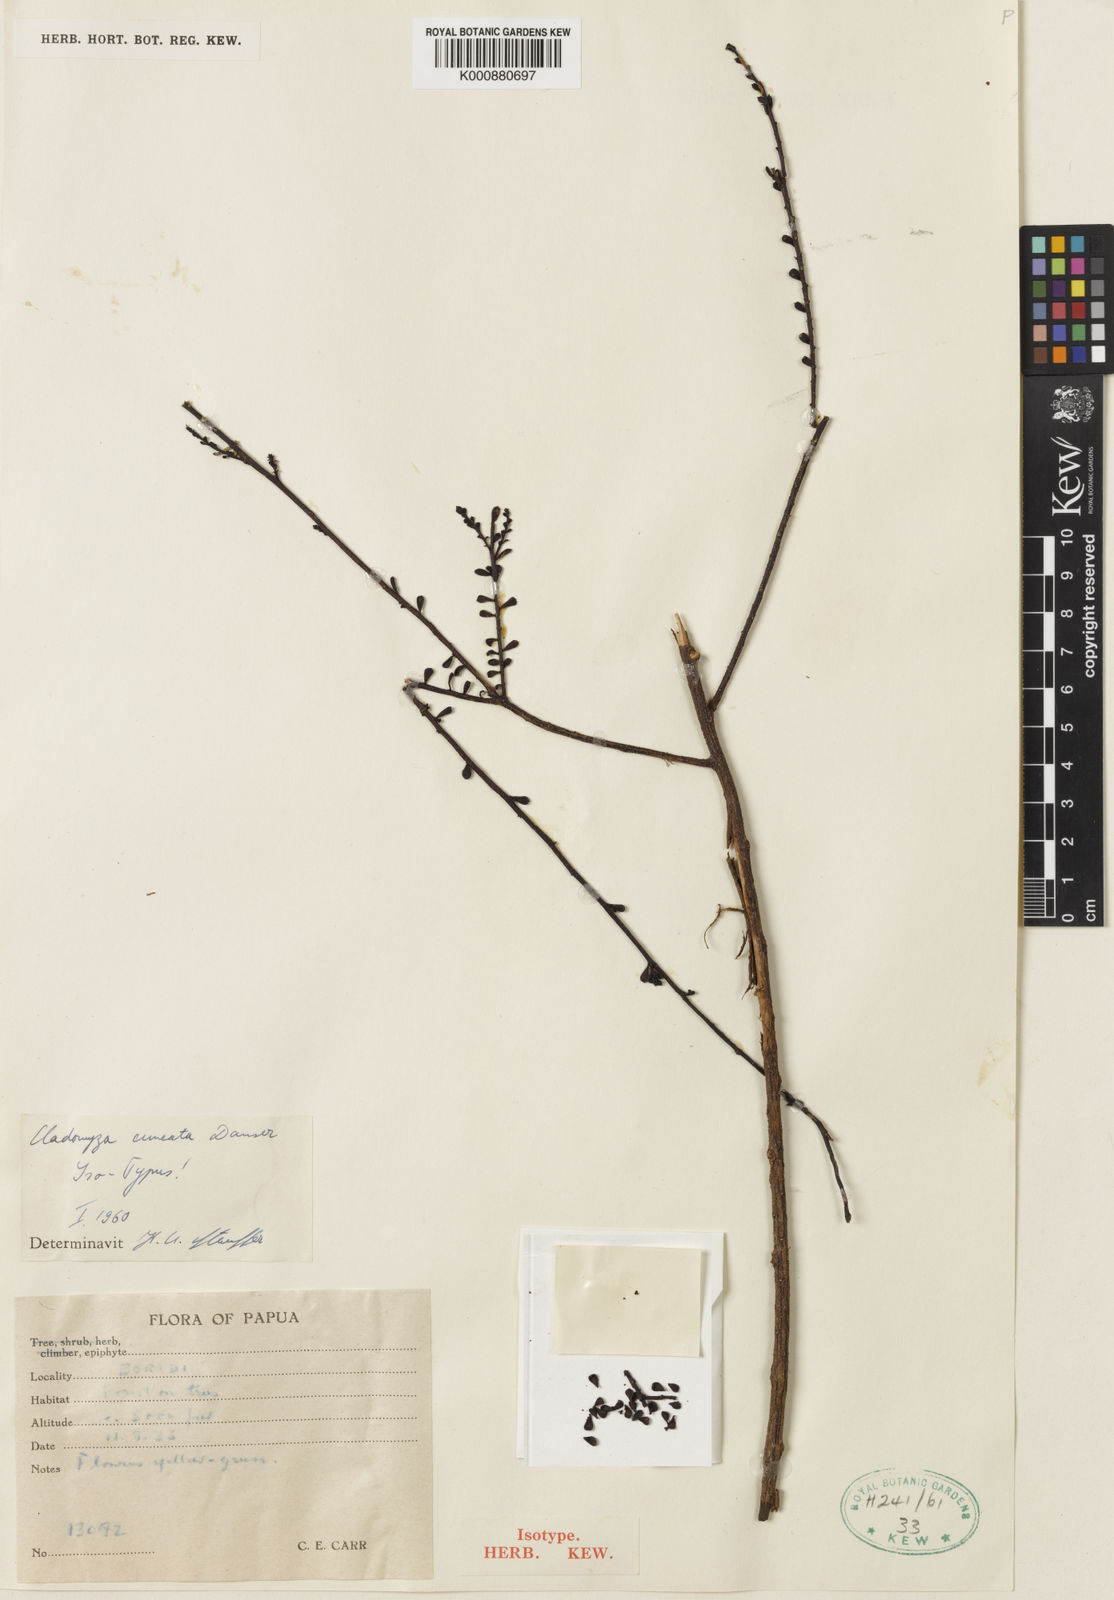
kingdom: Plantae
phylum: Tracheophyta
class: Magnoliopsida
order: Santalales
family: Amphorogynaceae
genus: Cladomyza
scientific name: Cladomyza cuneata
